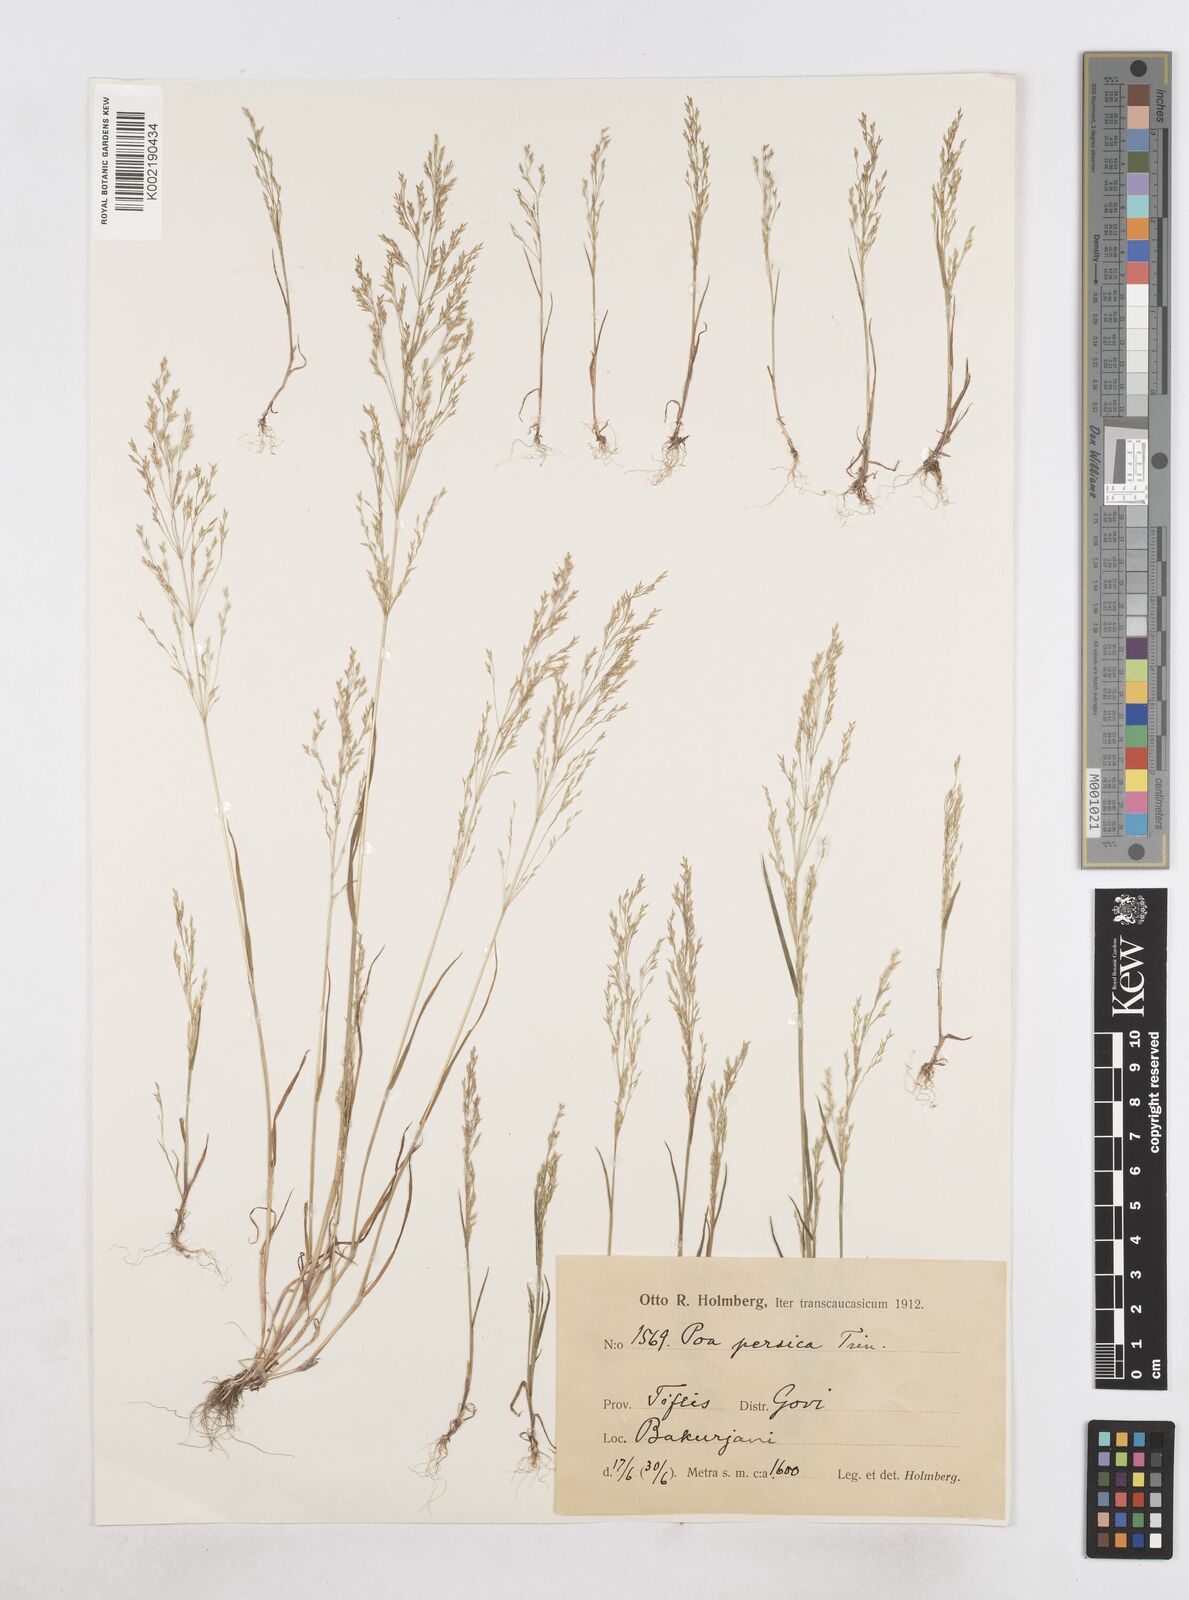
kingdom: Plantae
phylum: Tracheophyta
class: Liliopsida
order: Poales
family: Poaceae
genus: Poa
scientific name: Poa diaphora
